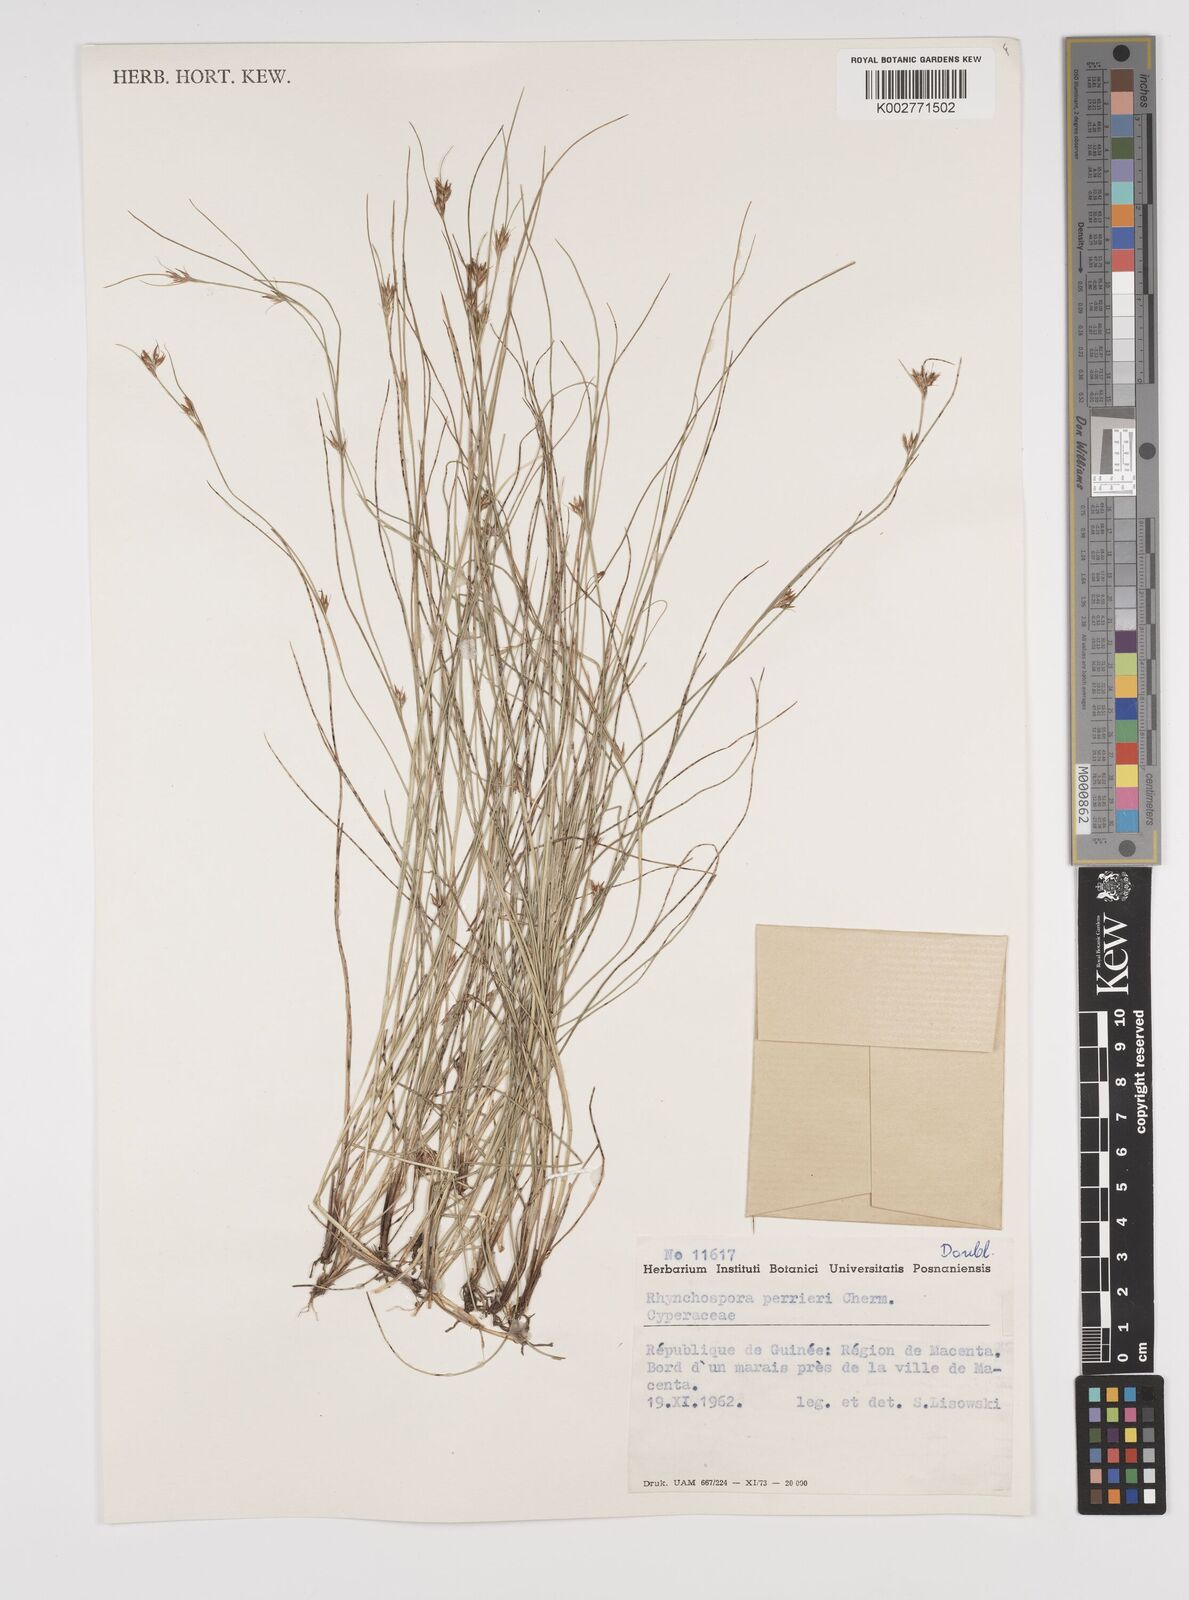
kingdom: Plantae
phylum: Tracheophyta
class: Liliopsida
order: Poales
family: Cyperaceae
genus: Rhynchospora
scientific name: Rhynchospora perrieri
